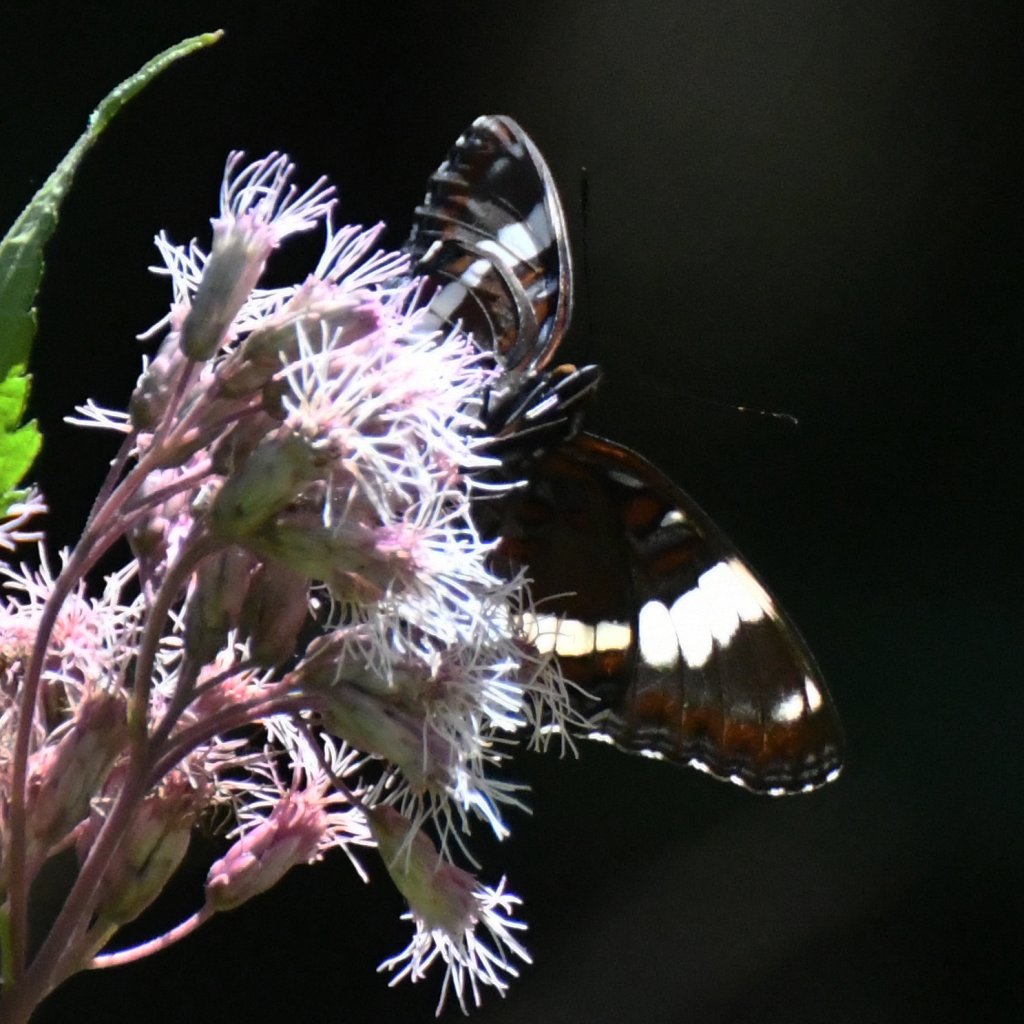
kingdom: Animalia
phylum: Arthropoda
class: Insecta
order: Lepidoptera
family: Nymphalidae
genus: Limenitis
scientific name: Limenitis arthemis
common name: Red-spotted Admiral
